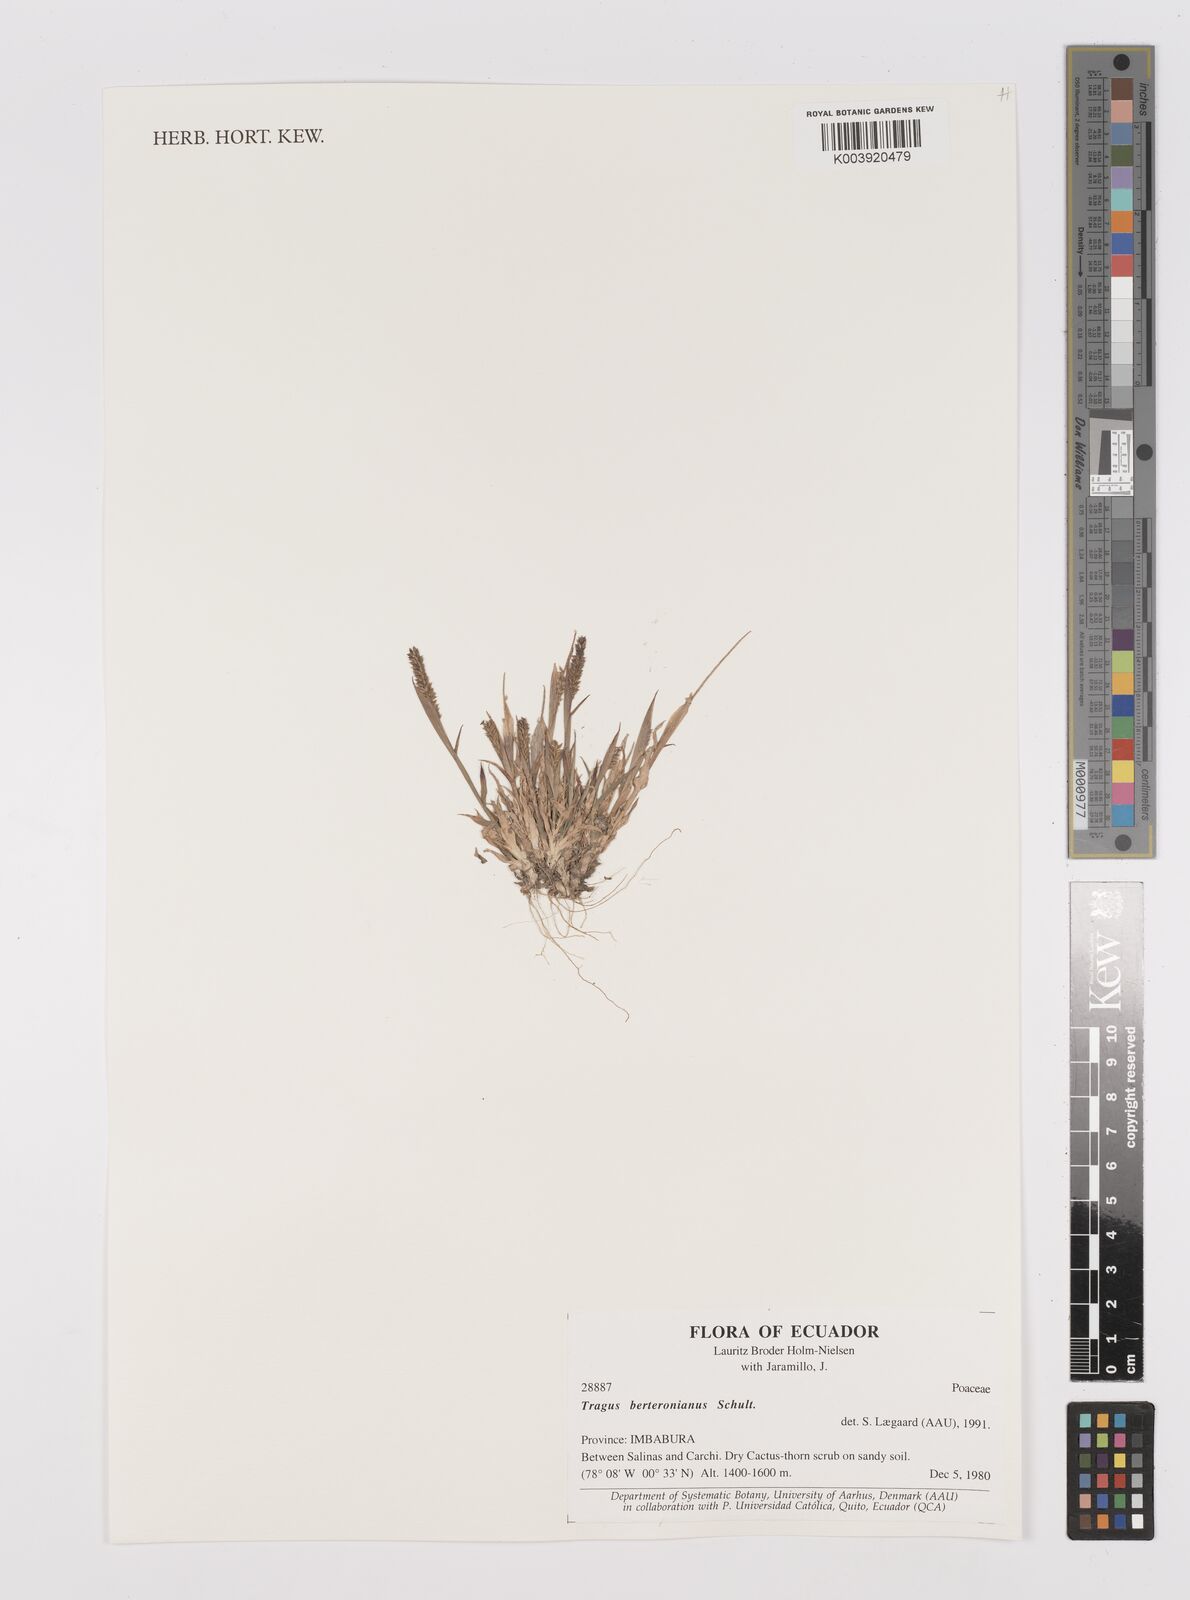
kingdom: Plantae
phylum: Tracheophyta
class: Liliopsida
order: Poales
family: Poaceae
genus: Tragus
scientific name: Tragus berteronianus
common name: African bur-grass
